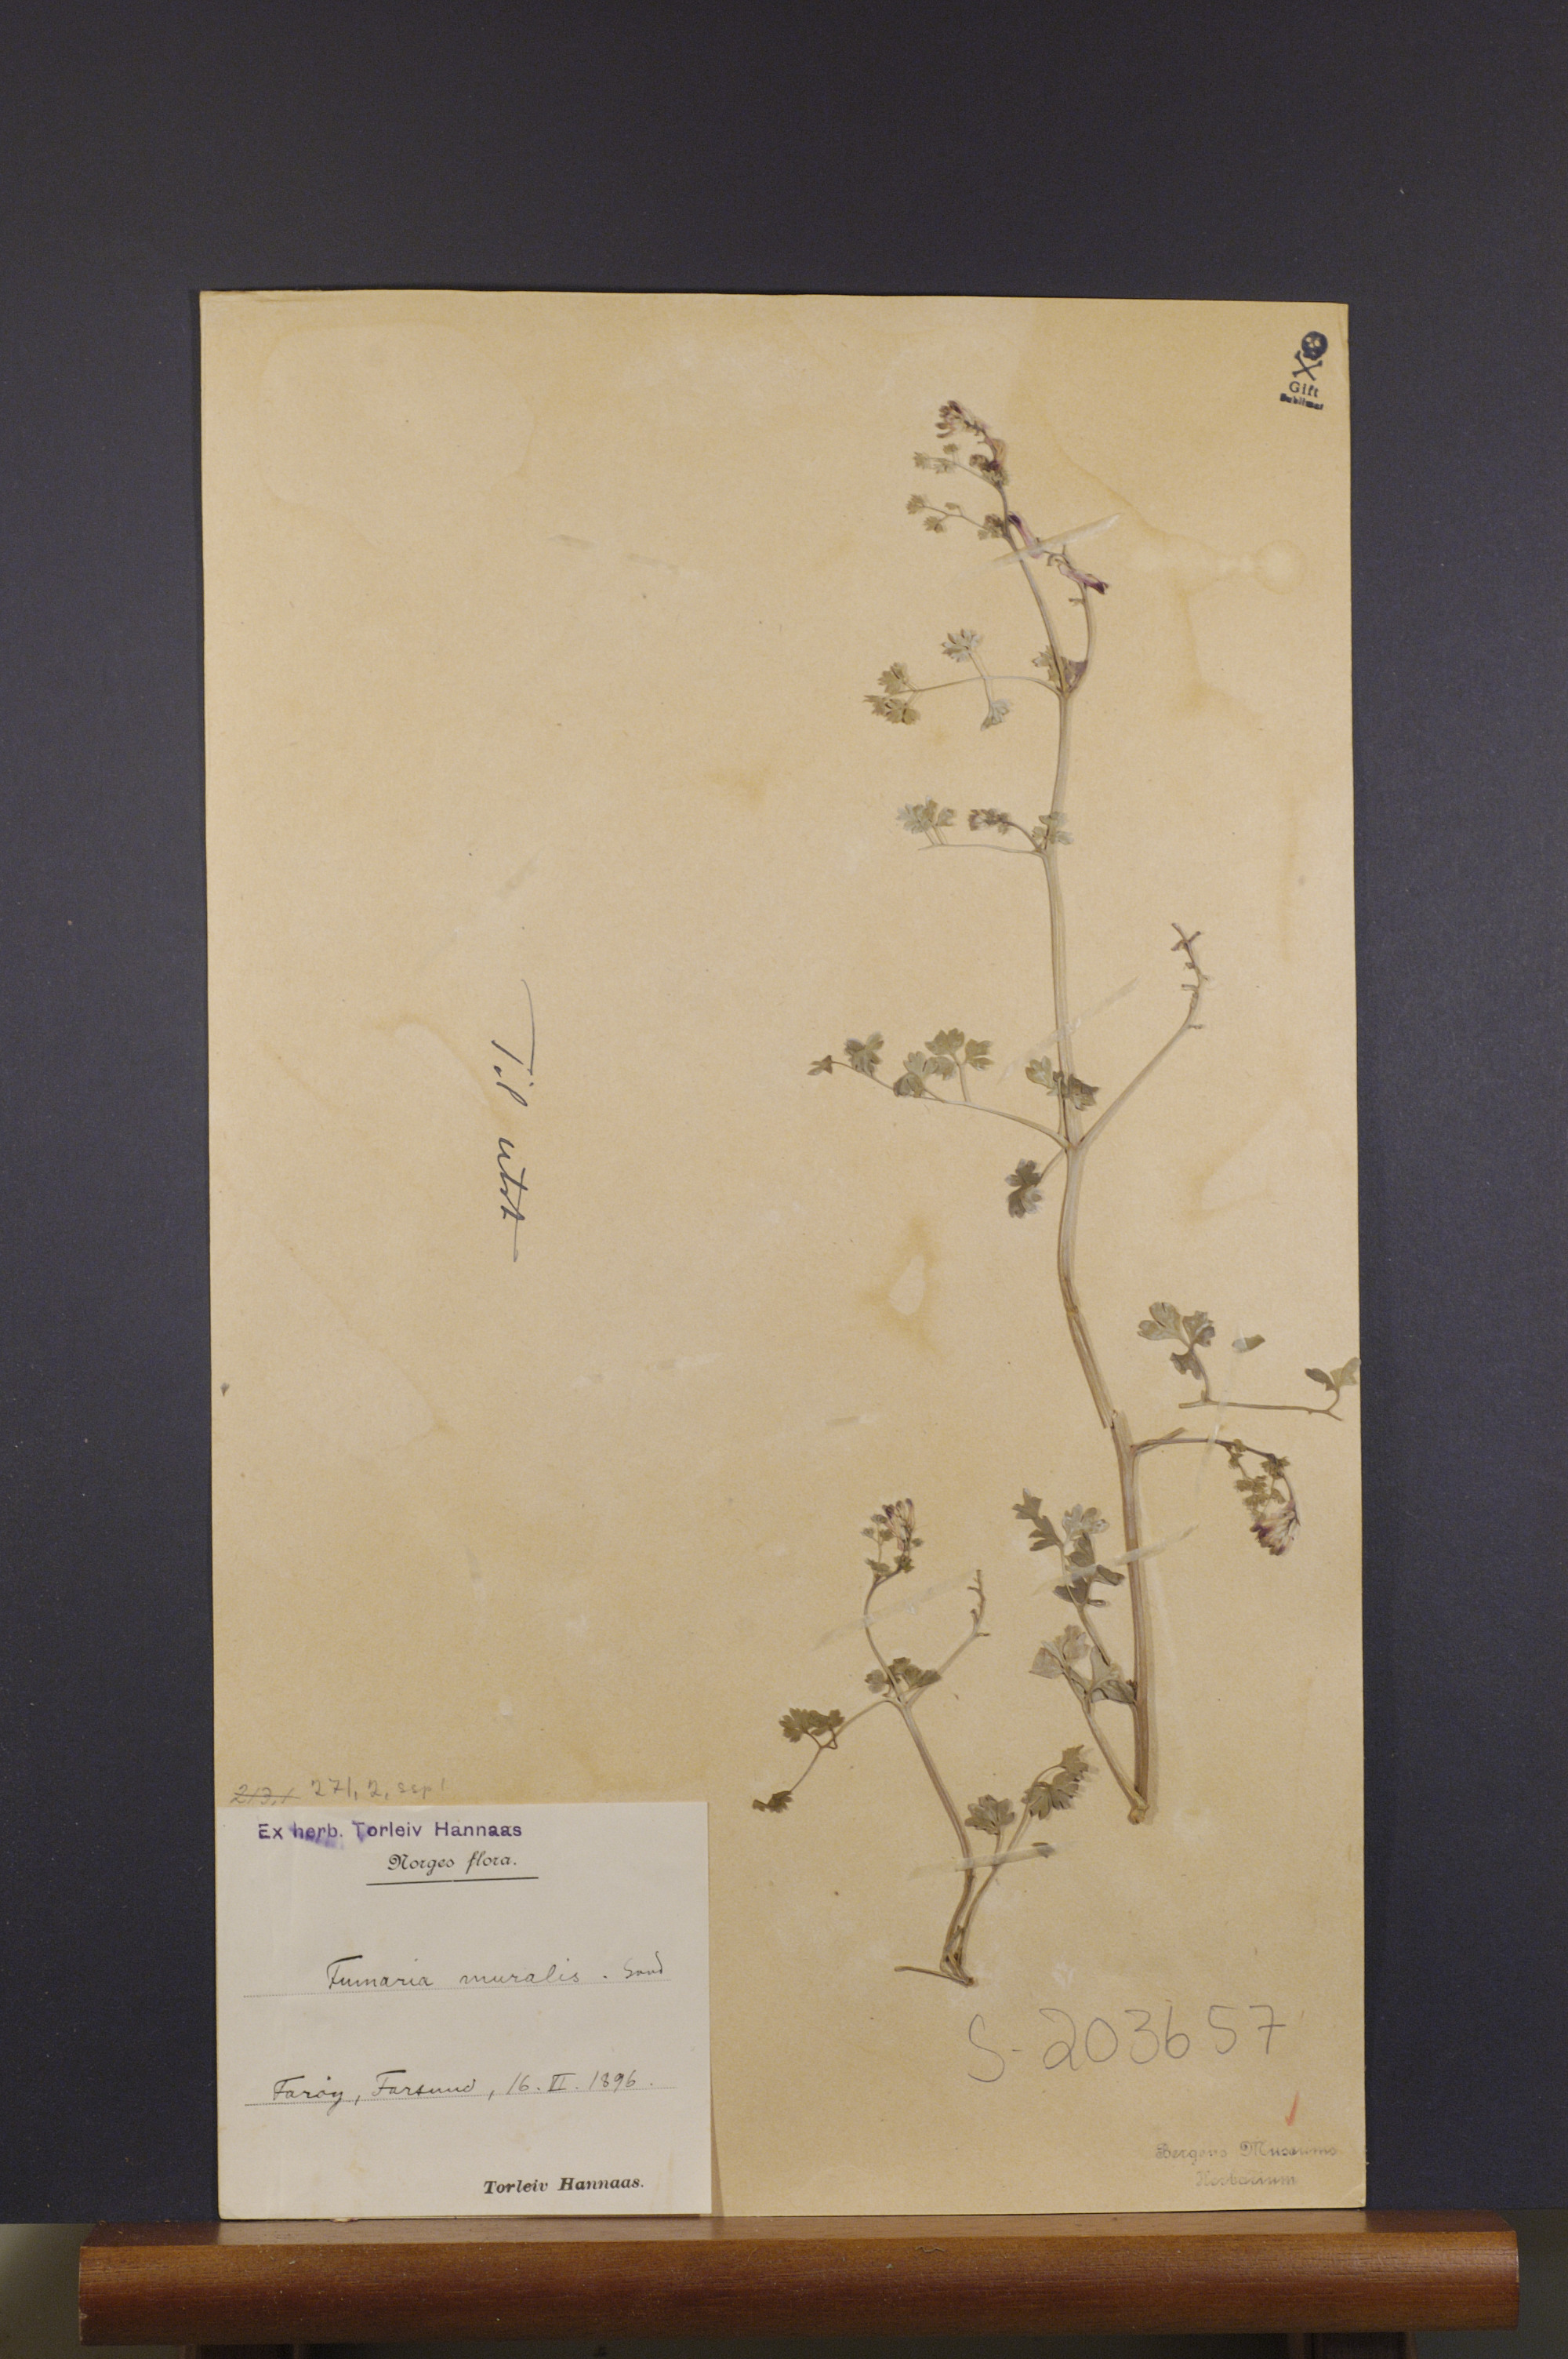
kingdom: Plantae
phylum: Tracheophyta
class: Magnoliopsida
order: Ranunculales
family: Papaveraceae
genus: Fumaria
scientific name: Fumaria muralis
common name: Common ramping-fumitory
